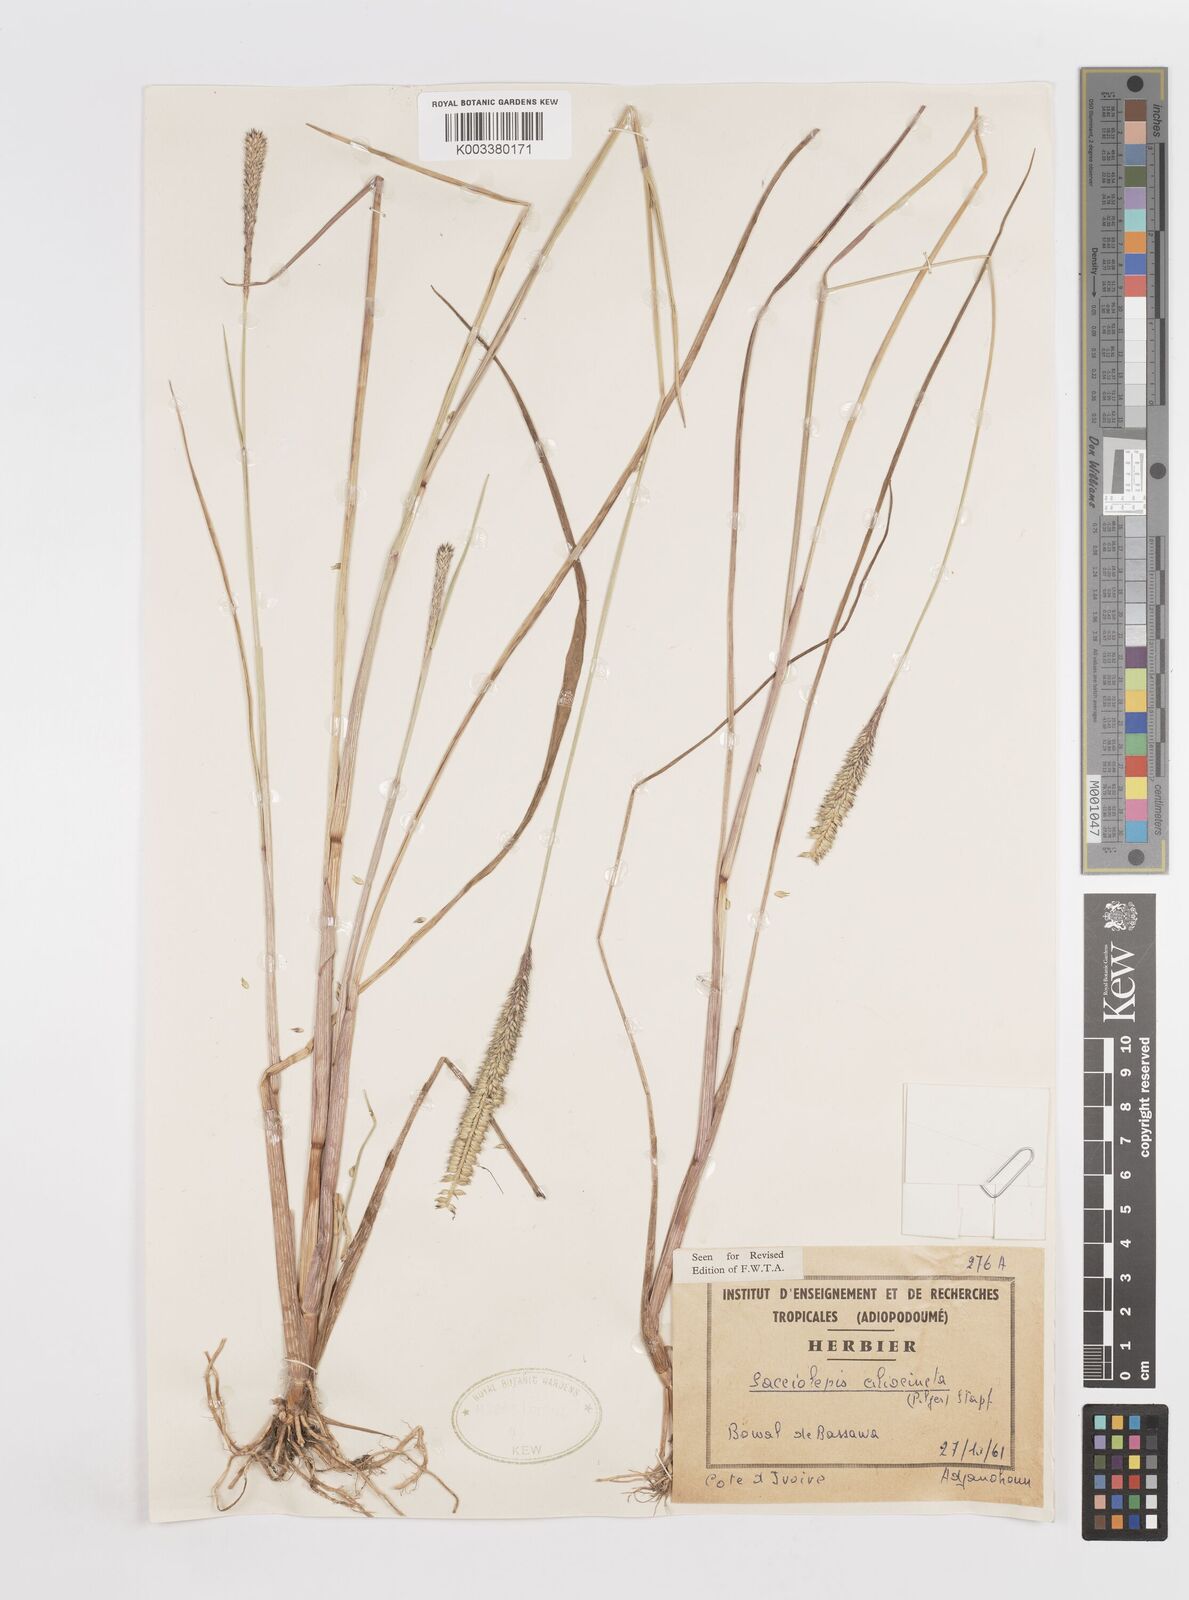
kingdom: Plantae
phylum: Tracheophyta
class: Liliopsida
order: Poales
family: Poaceae
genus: Sacciolepis
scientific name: Sacciolepis ciliocincta
